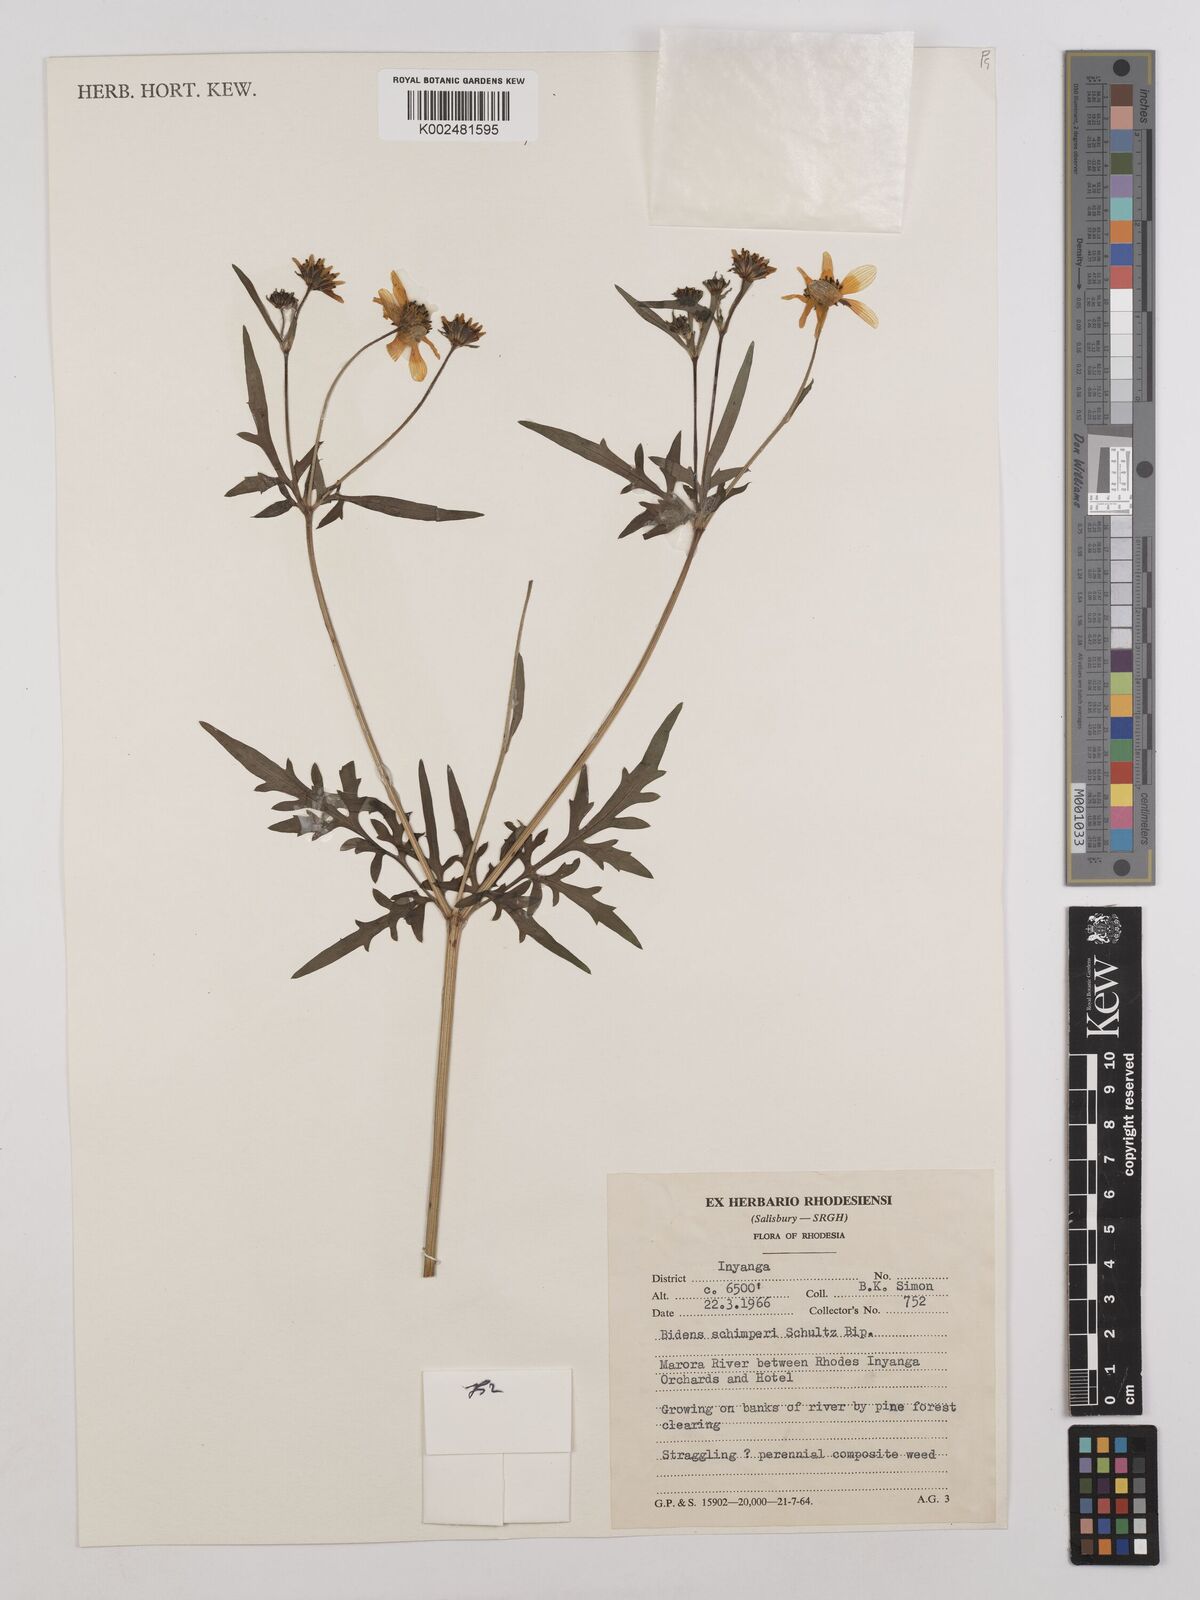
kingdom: Plantae
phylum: Tracheophyta
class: Magnoliopsida
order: Asterales
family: Asteraceae
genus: Bidens
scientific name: Bidens schimperi
